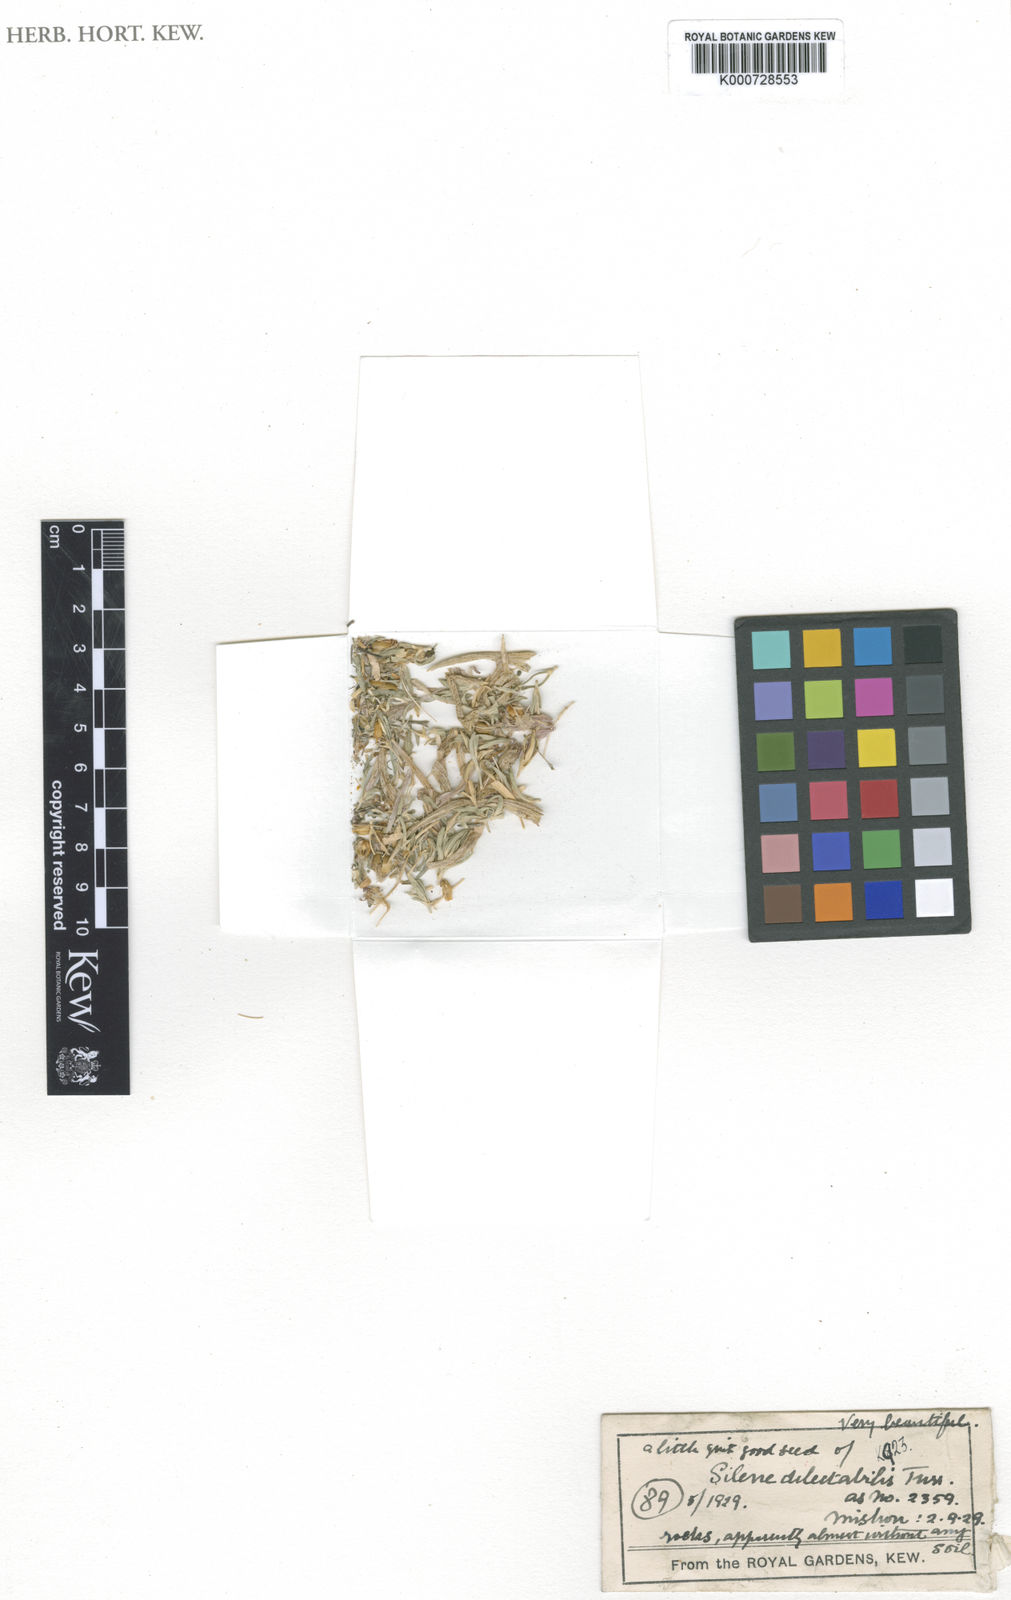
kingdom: Plantae
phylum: Tracheophyta
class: Magnoliopsida
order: Caryophyllales
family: Caryophyllaceae
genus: Silene
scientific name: Silene meyeri
